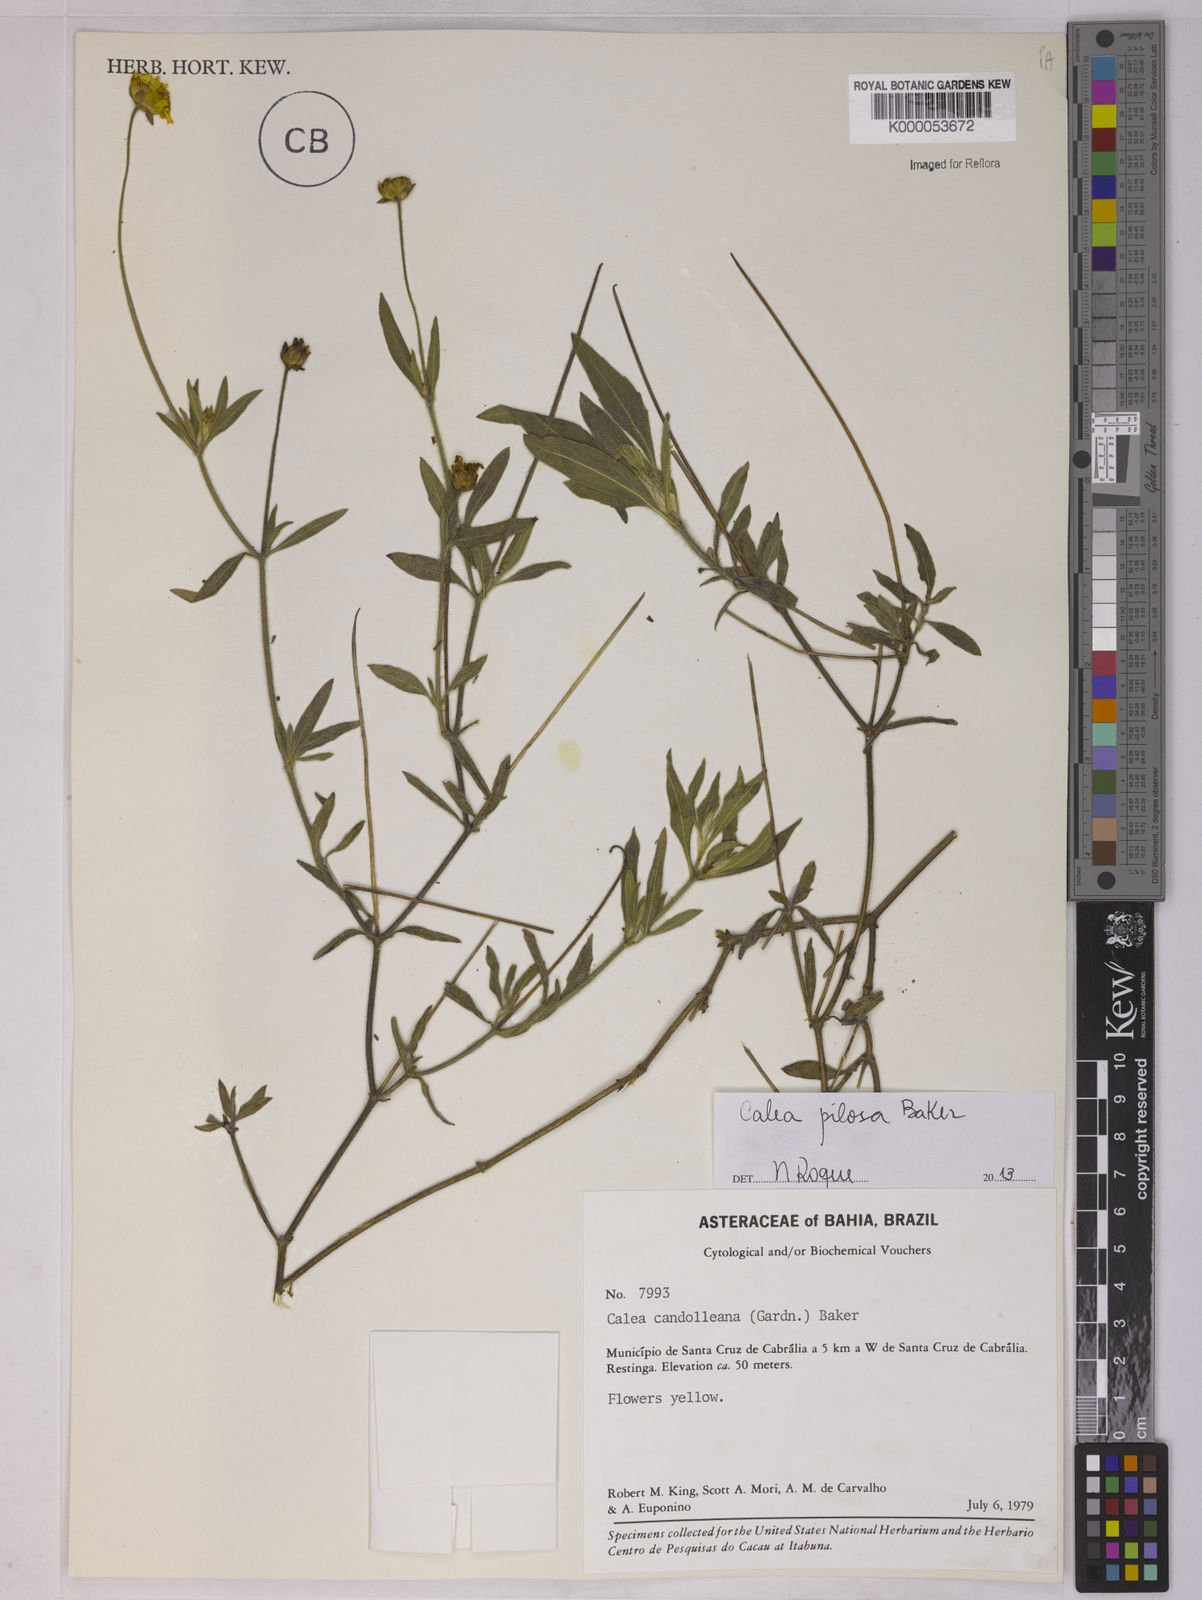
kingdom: Plantae
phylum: Tracheophyta
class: Magnoliopsida
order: Asterales
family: Asteraceae
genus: Calea
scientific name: Calea candolleana
